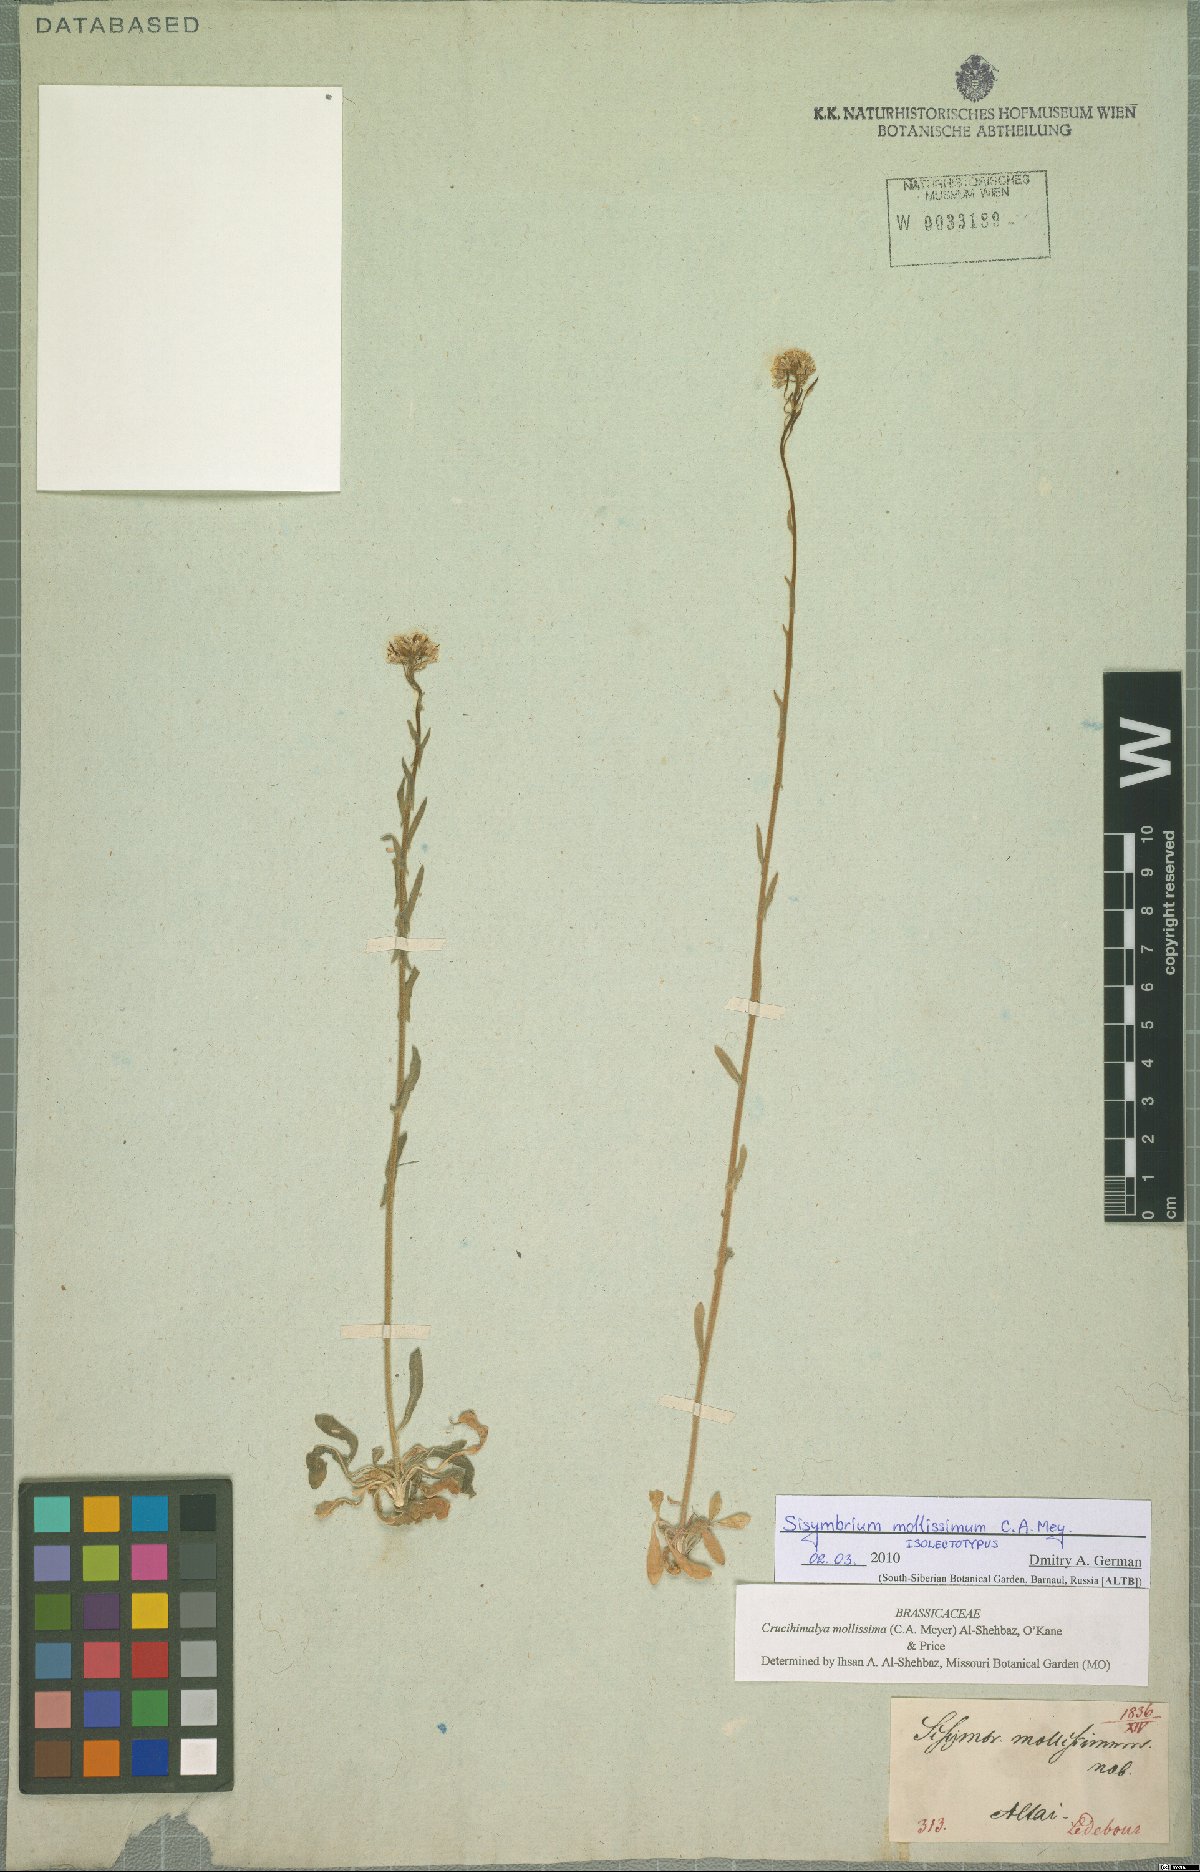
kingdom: Plantae
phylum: Tracheophyta
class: Magnoliopsida
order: Brassicales
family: Brassicaceae
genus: Crucihimalaya
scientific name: Crucihimalaya mollissima
